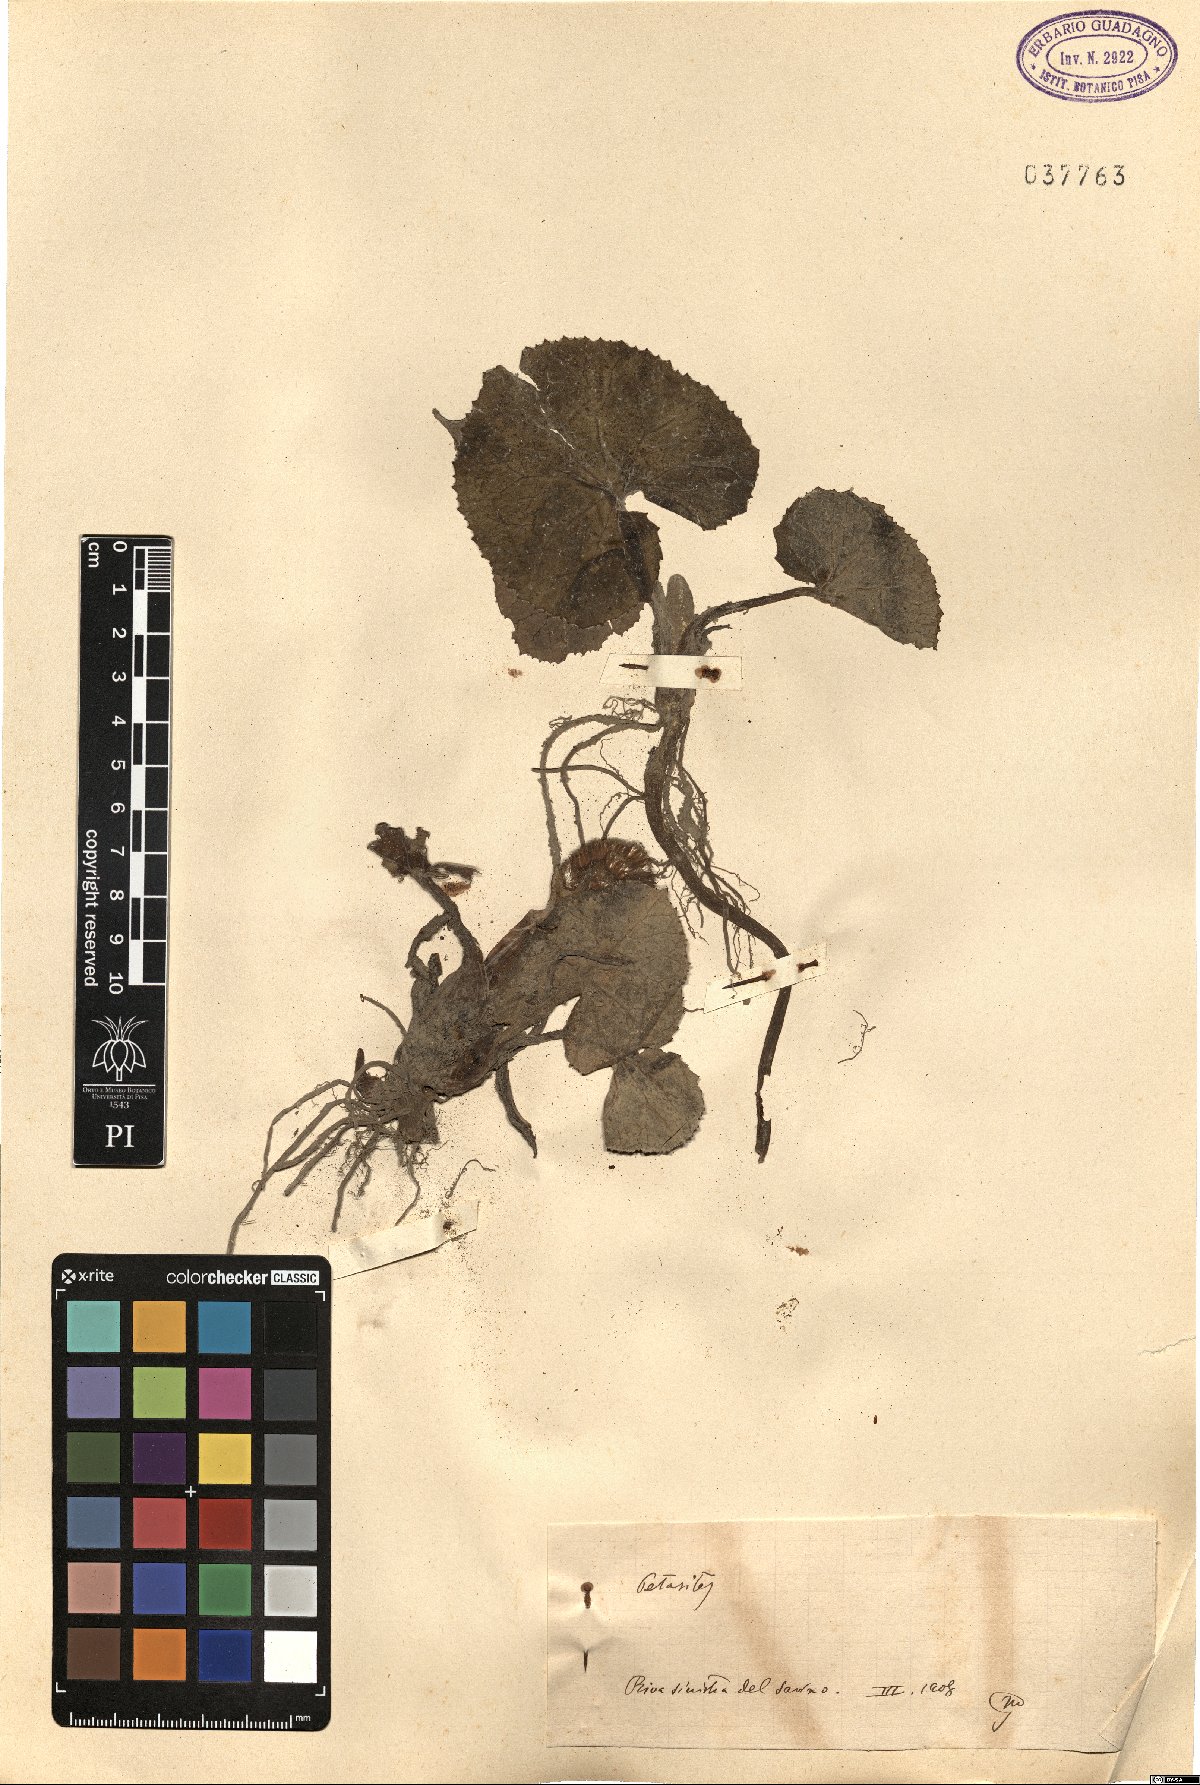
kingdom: Plantae
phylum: Tracheophyta
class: Magnoliopsida
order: Asterales
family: Asteraceae
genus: Petasites
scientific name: Petasites
